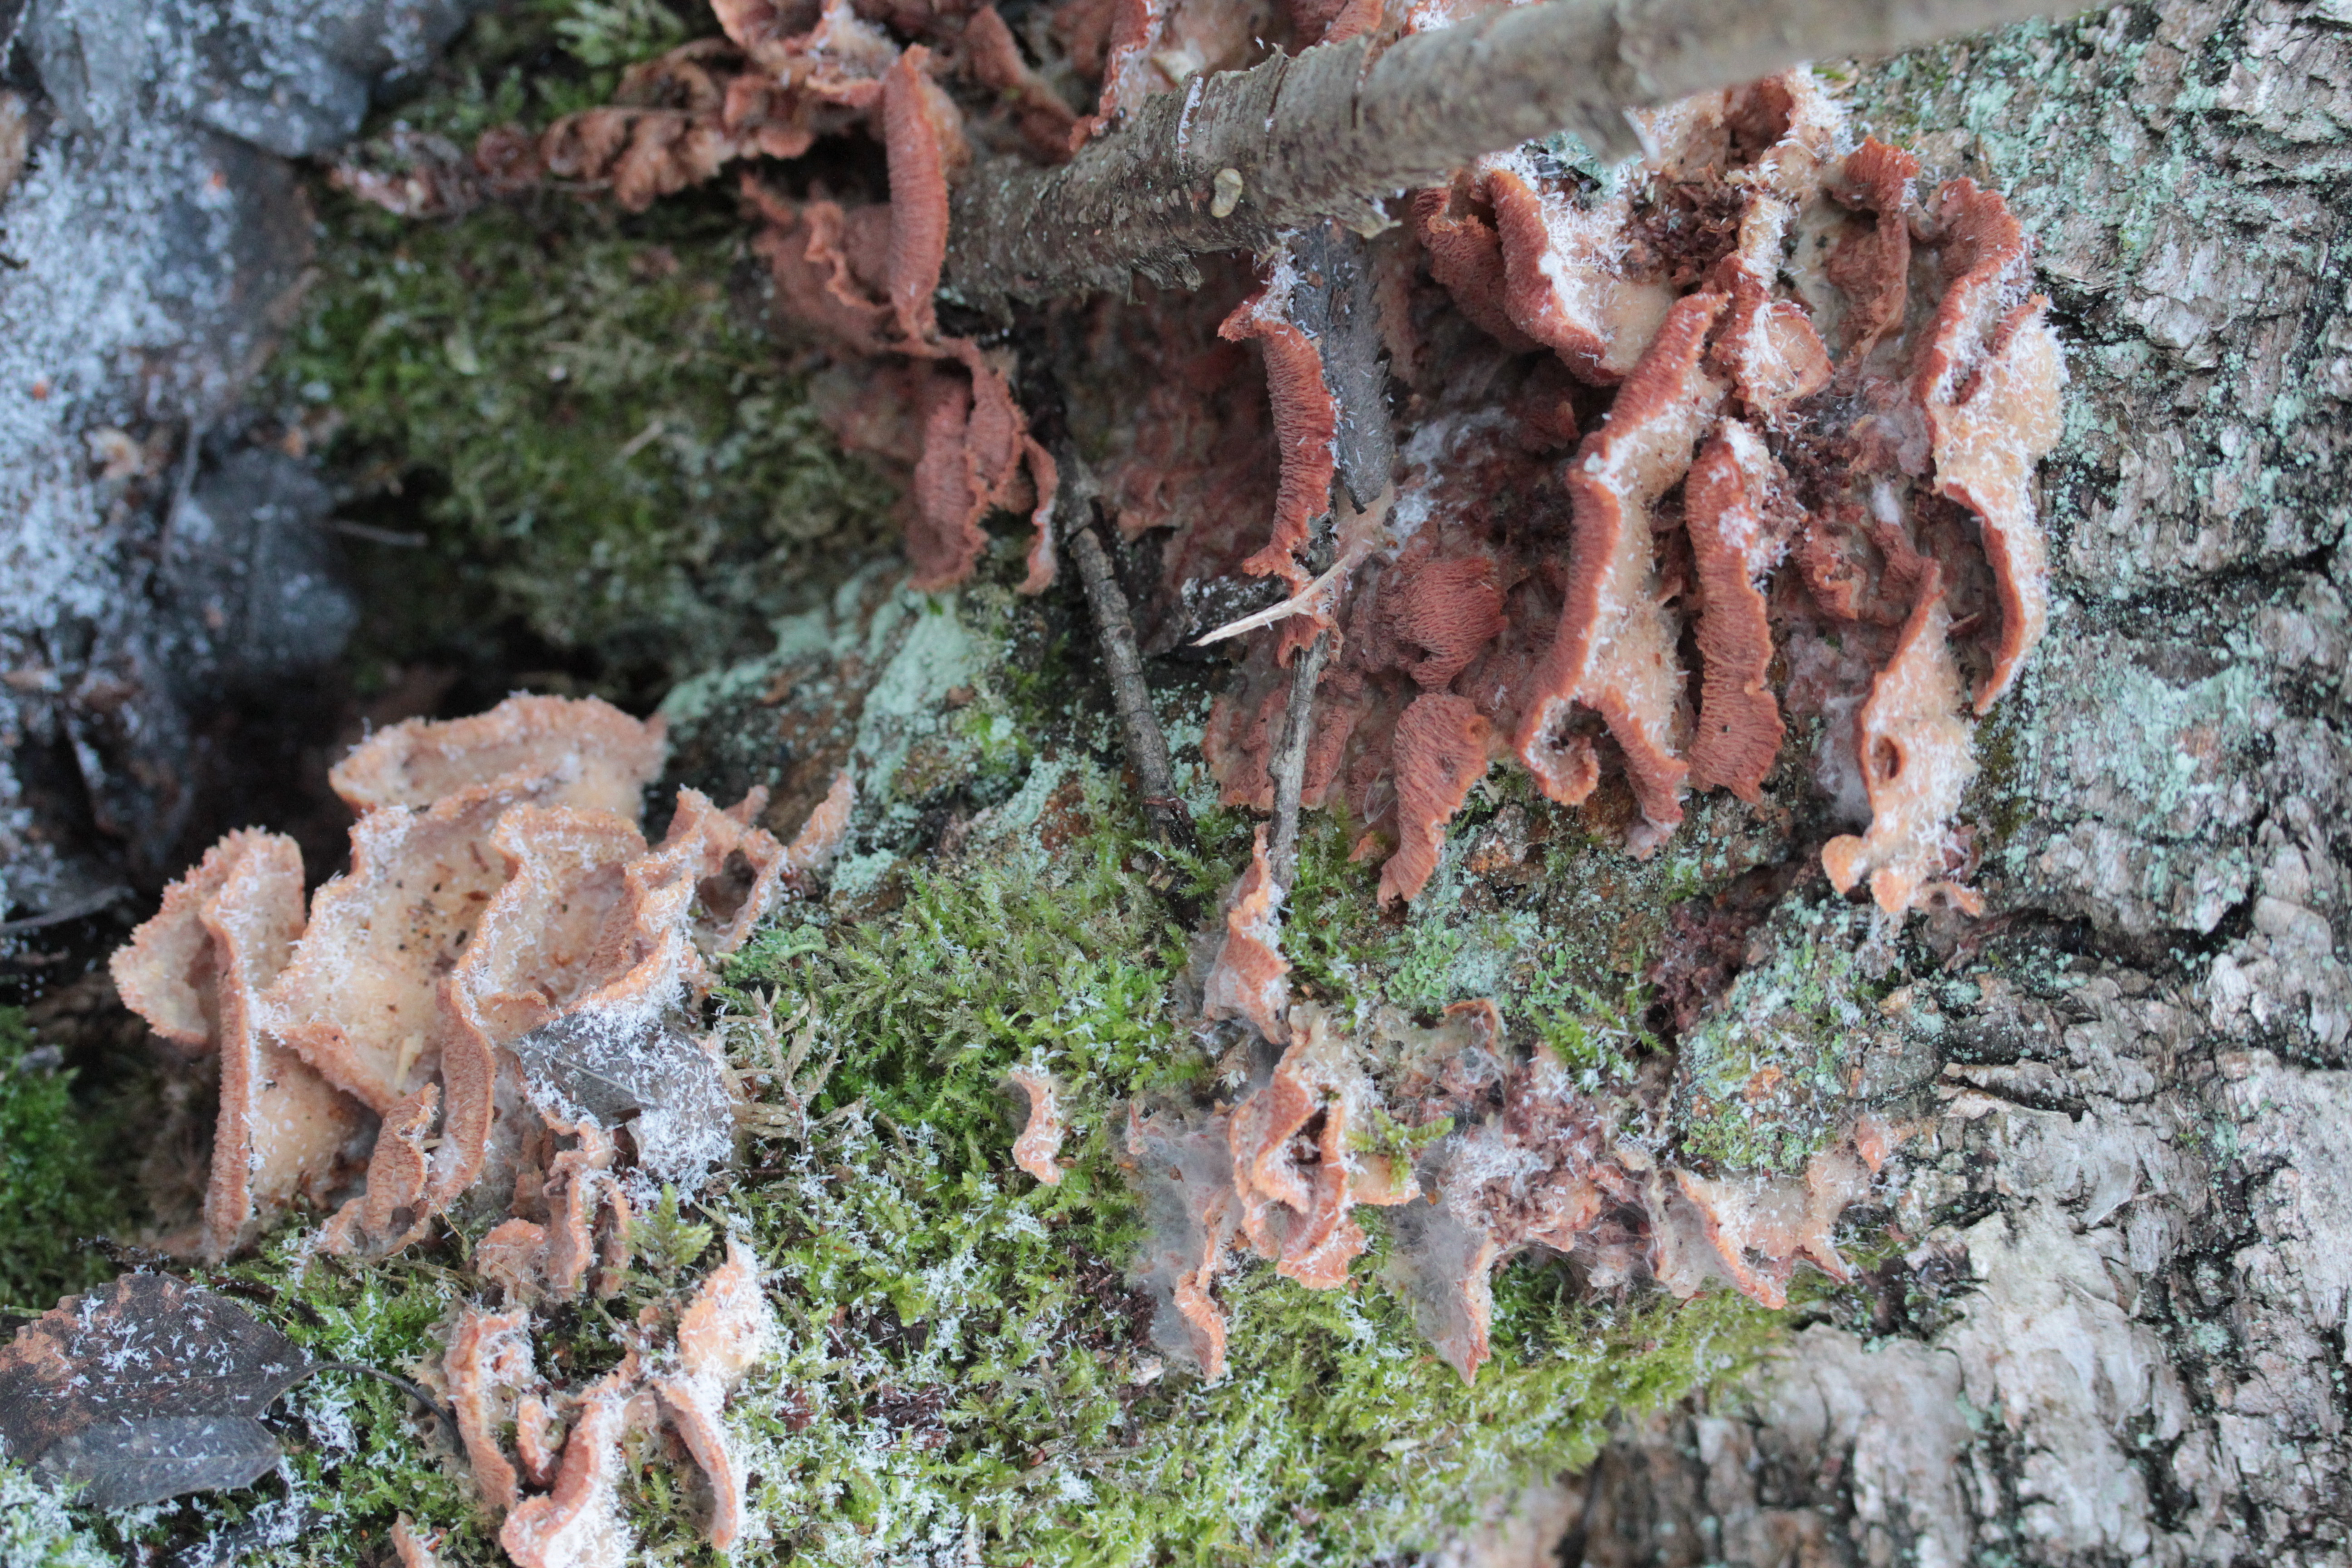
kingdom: Fungi
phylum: Basidiomycota
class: Agaricomycetes
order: Polyporales
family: Meruliaceae
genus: Phlebia
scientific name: Phlebia tremellosa
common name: Jelly rot
